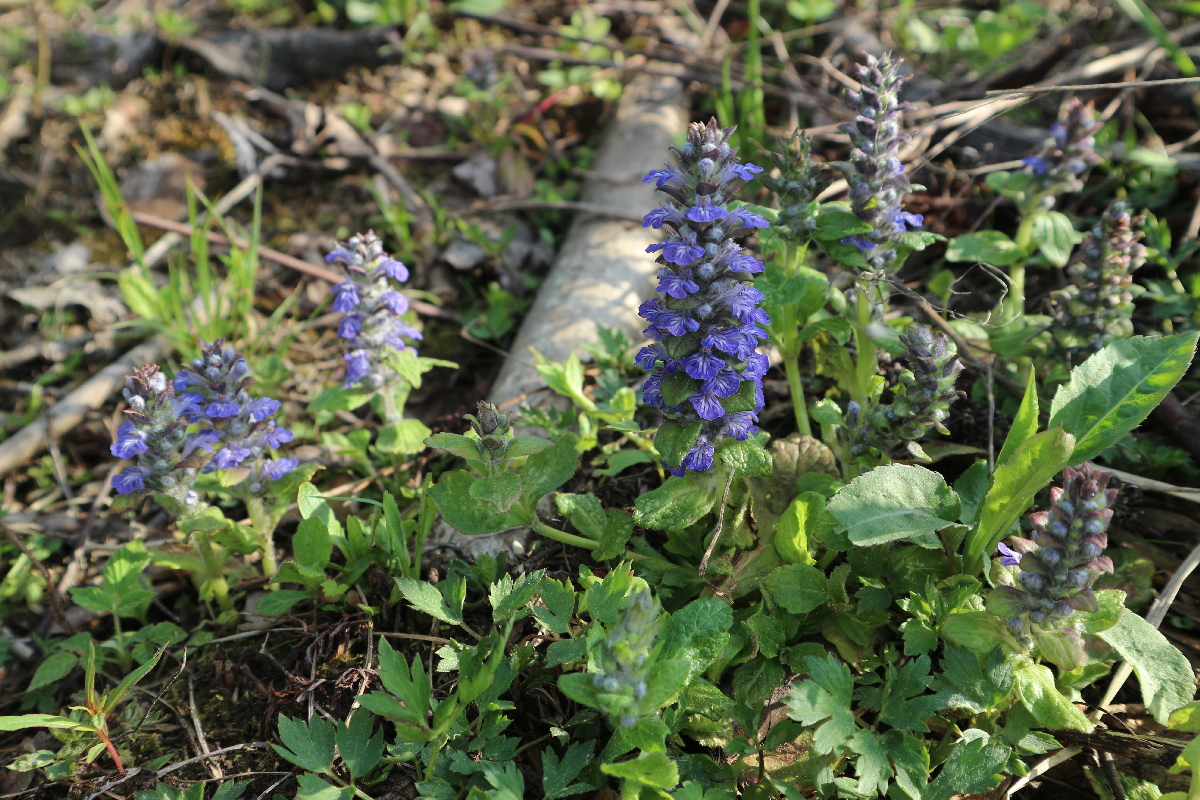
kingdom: Plantae
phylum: Tracheophyta
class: Magnoliopsida
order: Lamiales
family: Lamiaceae
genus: Ajuga
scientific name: Ajuga reptans
